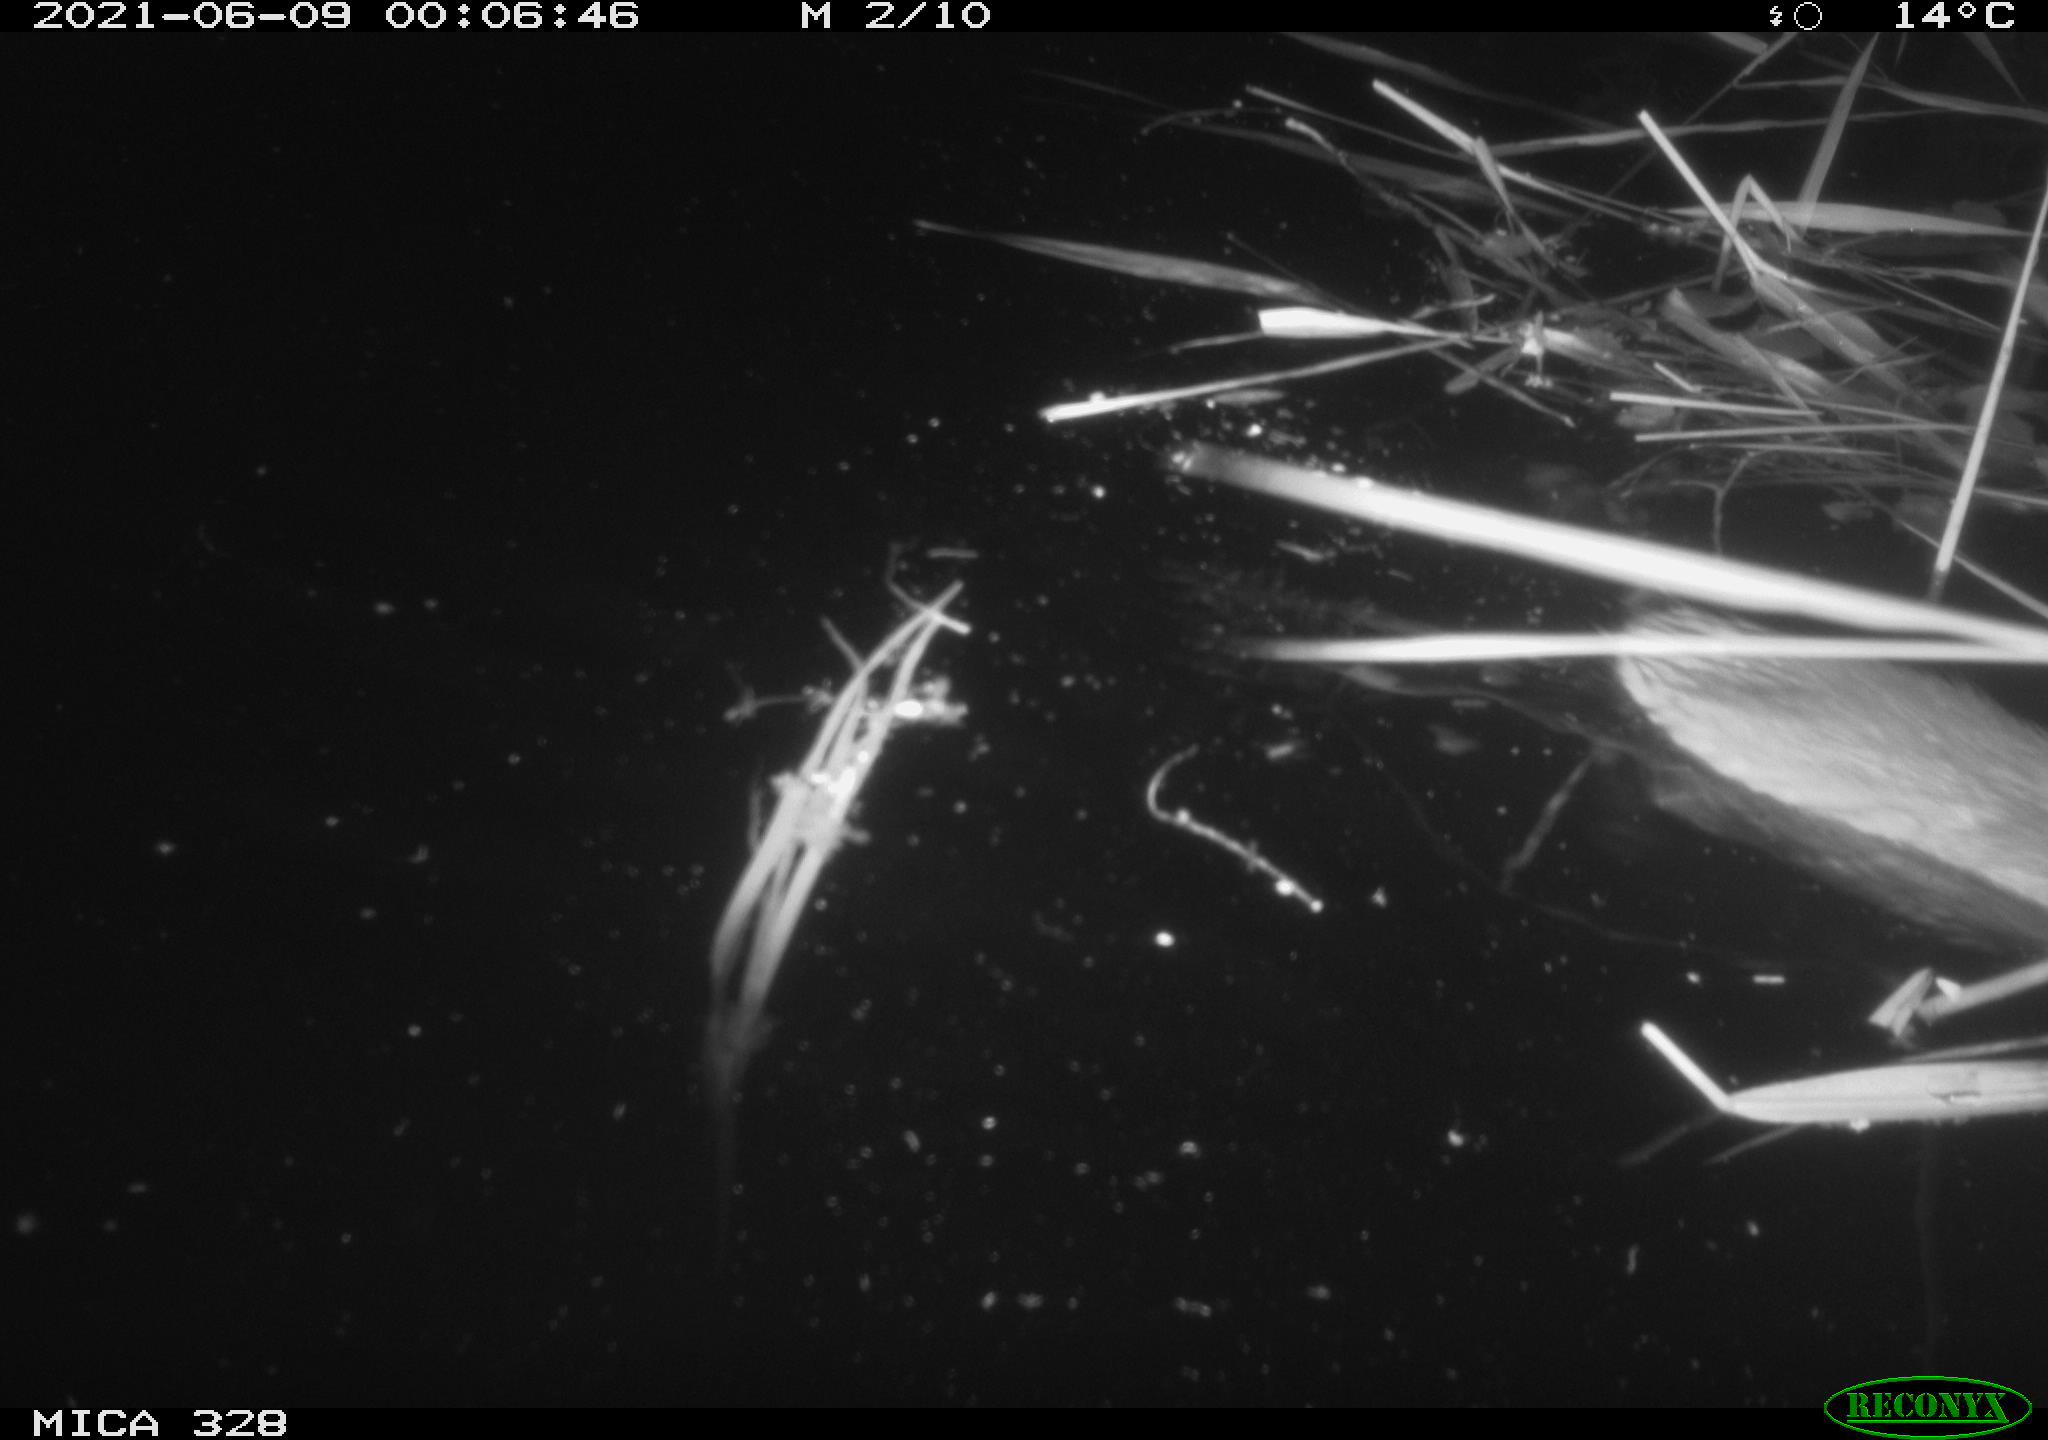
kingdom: Animalia
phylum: Chordata
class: Mammalia
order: Rodentia
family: Cricetidae
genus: Ondatra
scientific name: Ondatra zibethicus
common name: Muskrat
